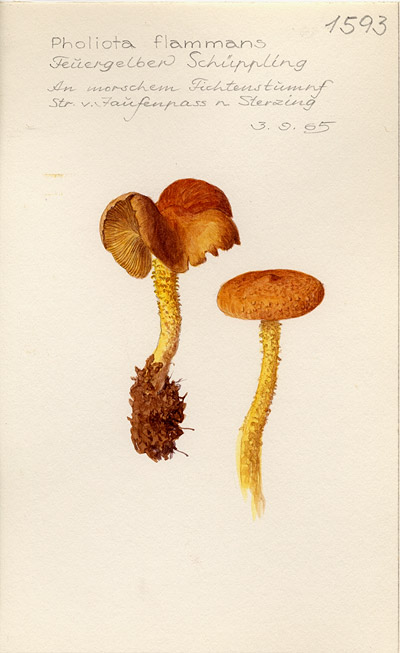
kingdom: Fungi
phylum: Basidiomycota
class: Agaricomycetes
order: Agaricales
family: Strophariaceae
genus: Pholiota
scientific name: Pholiota flammans
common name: Flaming scalycap
